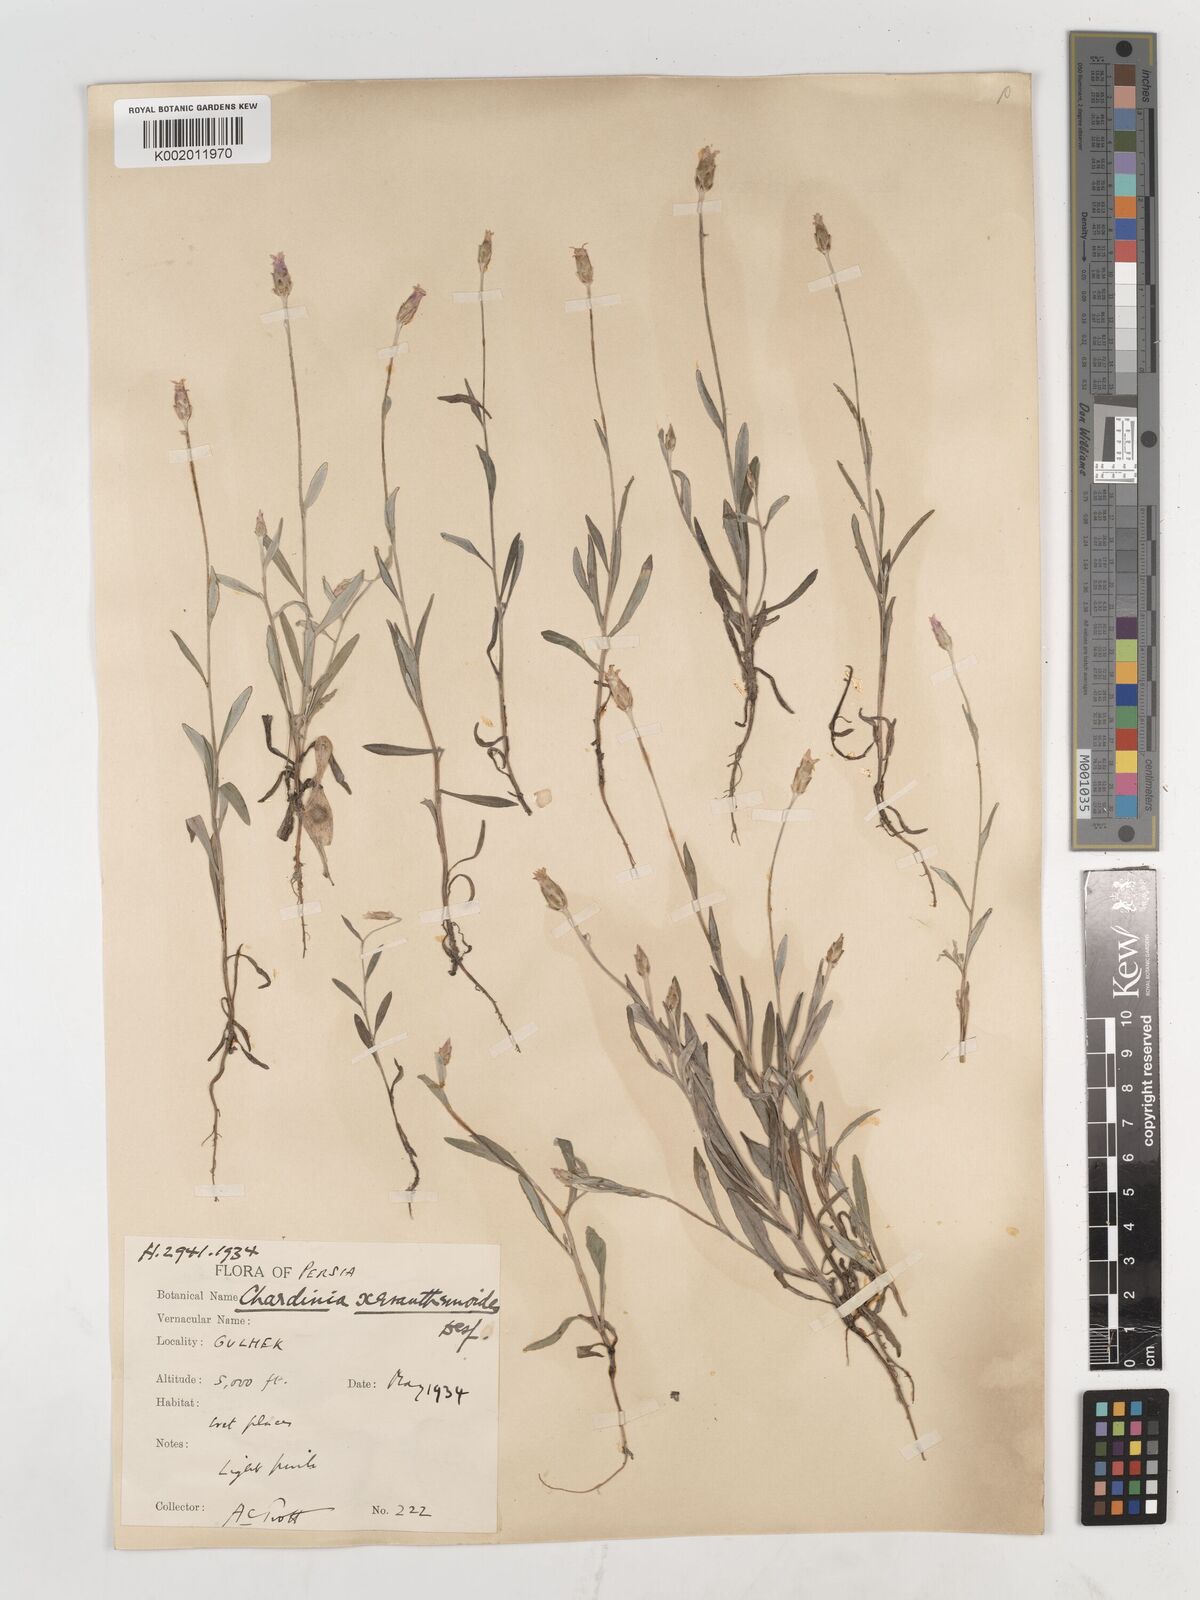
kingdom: Plantae
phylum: Tracheophyta
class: Magnoliopsida
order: Asterales
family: Asteraceae
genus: Chardinia
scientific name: Chardinia orientalis
